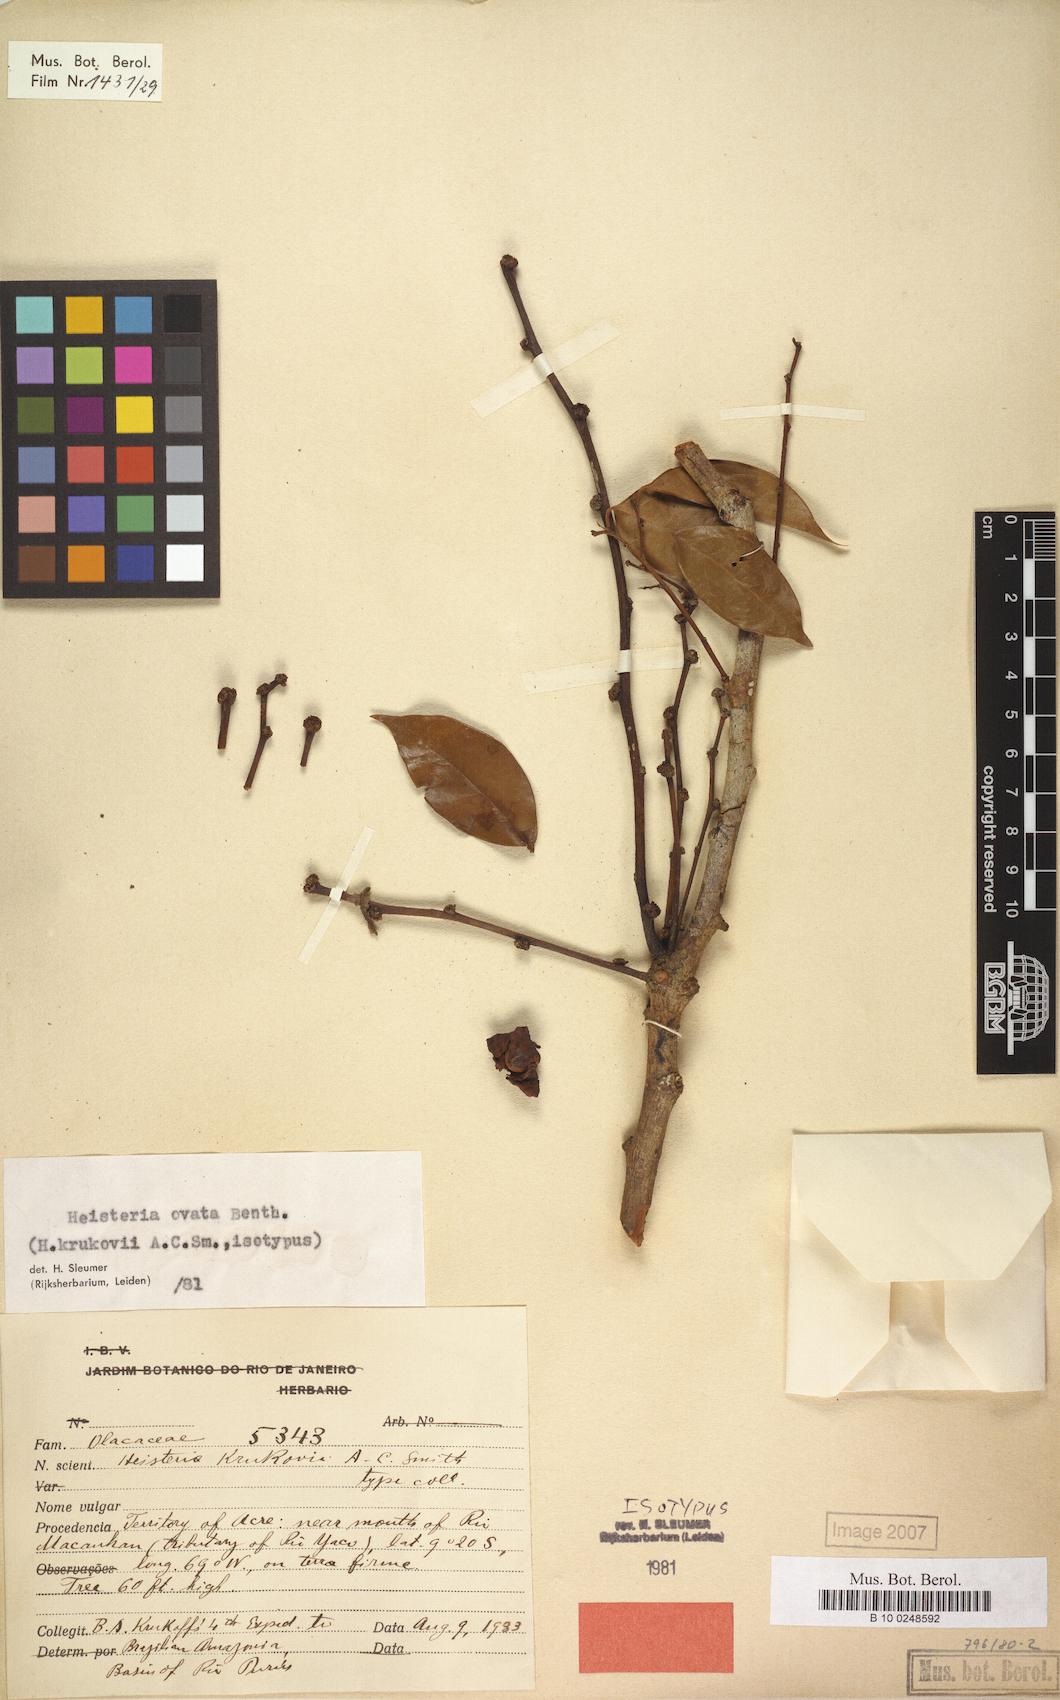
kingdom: Plantae
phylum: Tracheophyta
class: Magnoliopsida
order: Santalales
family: Erythropalaceae
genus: Heisteria
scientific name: Heisteria ovata
